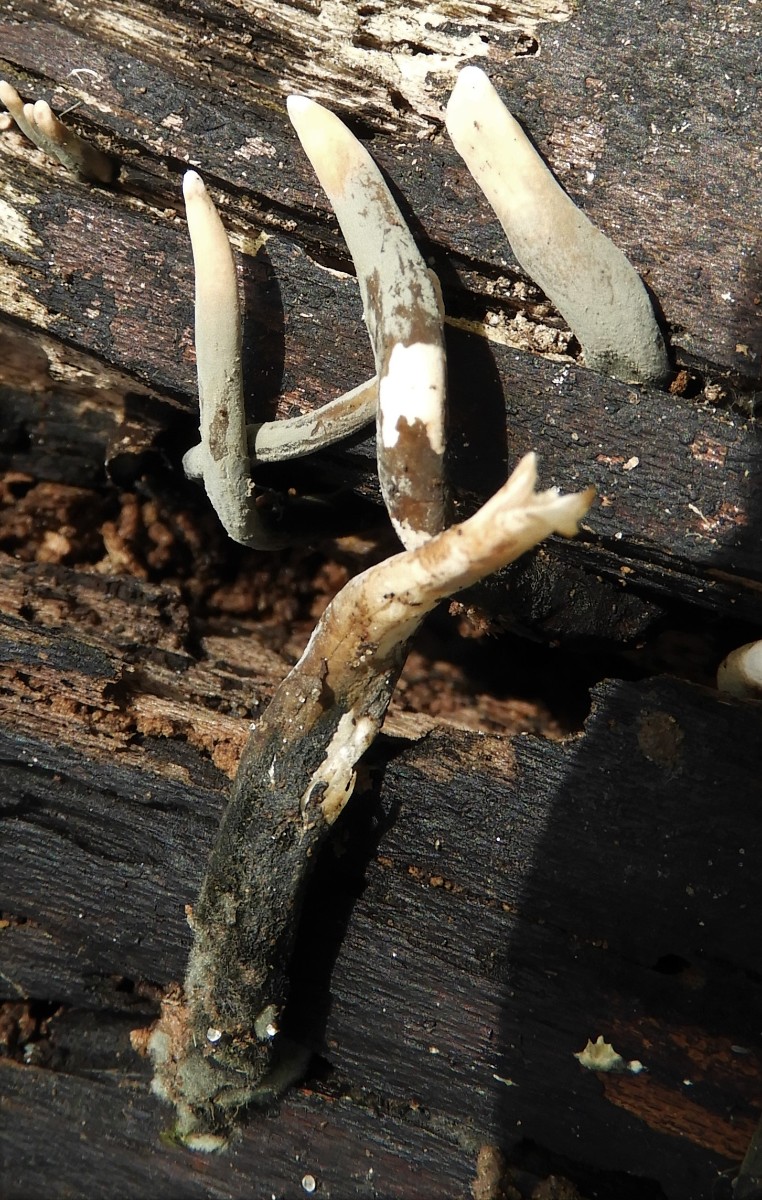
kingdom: Fungi
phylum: Ascomycota
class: Sordariomycetes
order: Xylariales
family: Xylariaceae
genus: Xylaria
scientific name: Xylaria hypoxylon
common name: grenet stødsvamp
